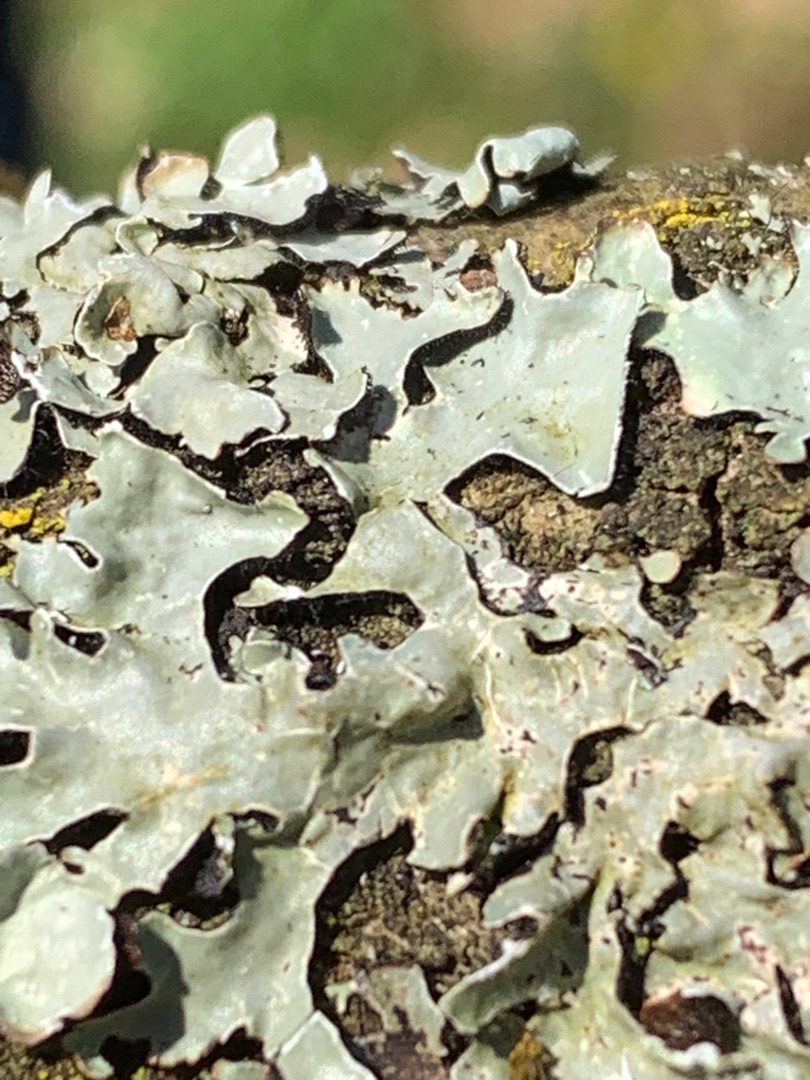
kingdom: Fungi
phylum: Ascomycota
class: Lecanoromycetes
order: Lecanorales
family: Parmeliaceae
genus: Parmelia
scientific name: Parmelia sulcata
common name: Rynket skållav
